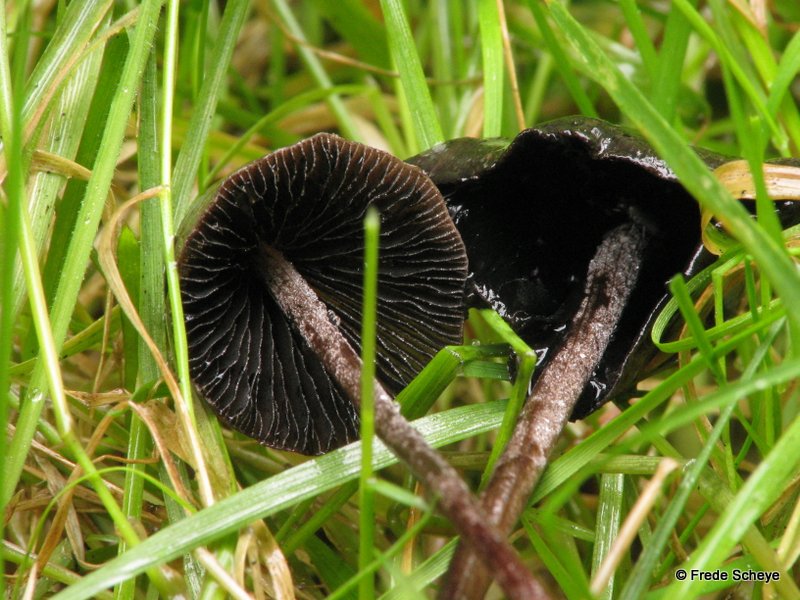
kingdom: Fungi
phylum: Basidiomycota
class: Agaricomycetes
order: Agaricales
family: Bolbitiaceae
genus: Panaeolus
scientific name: Panaeolus acuminatus
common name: høj glanshat
